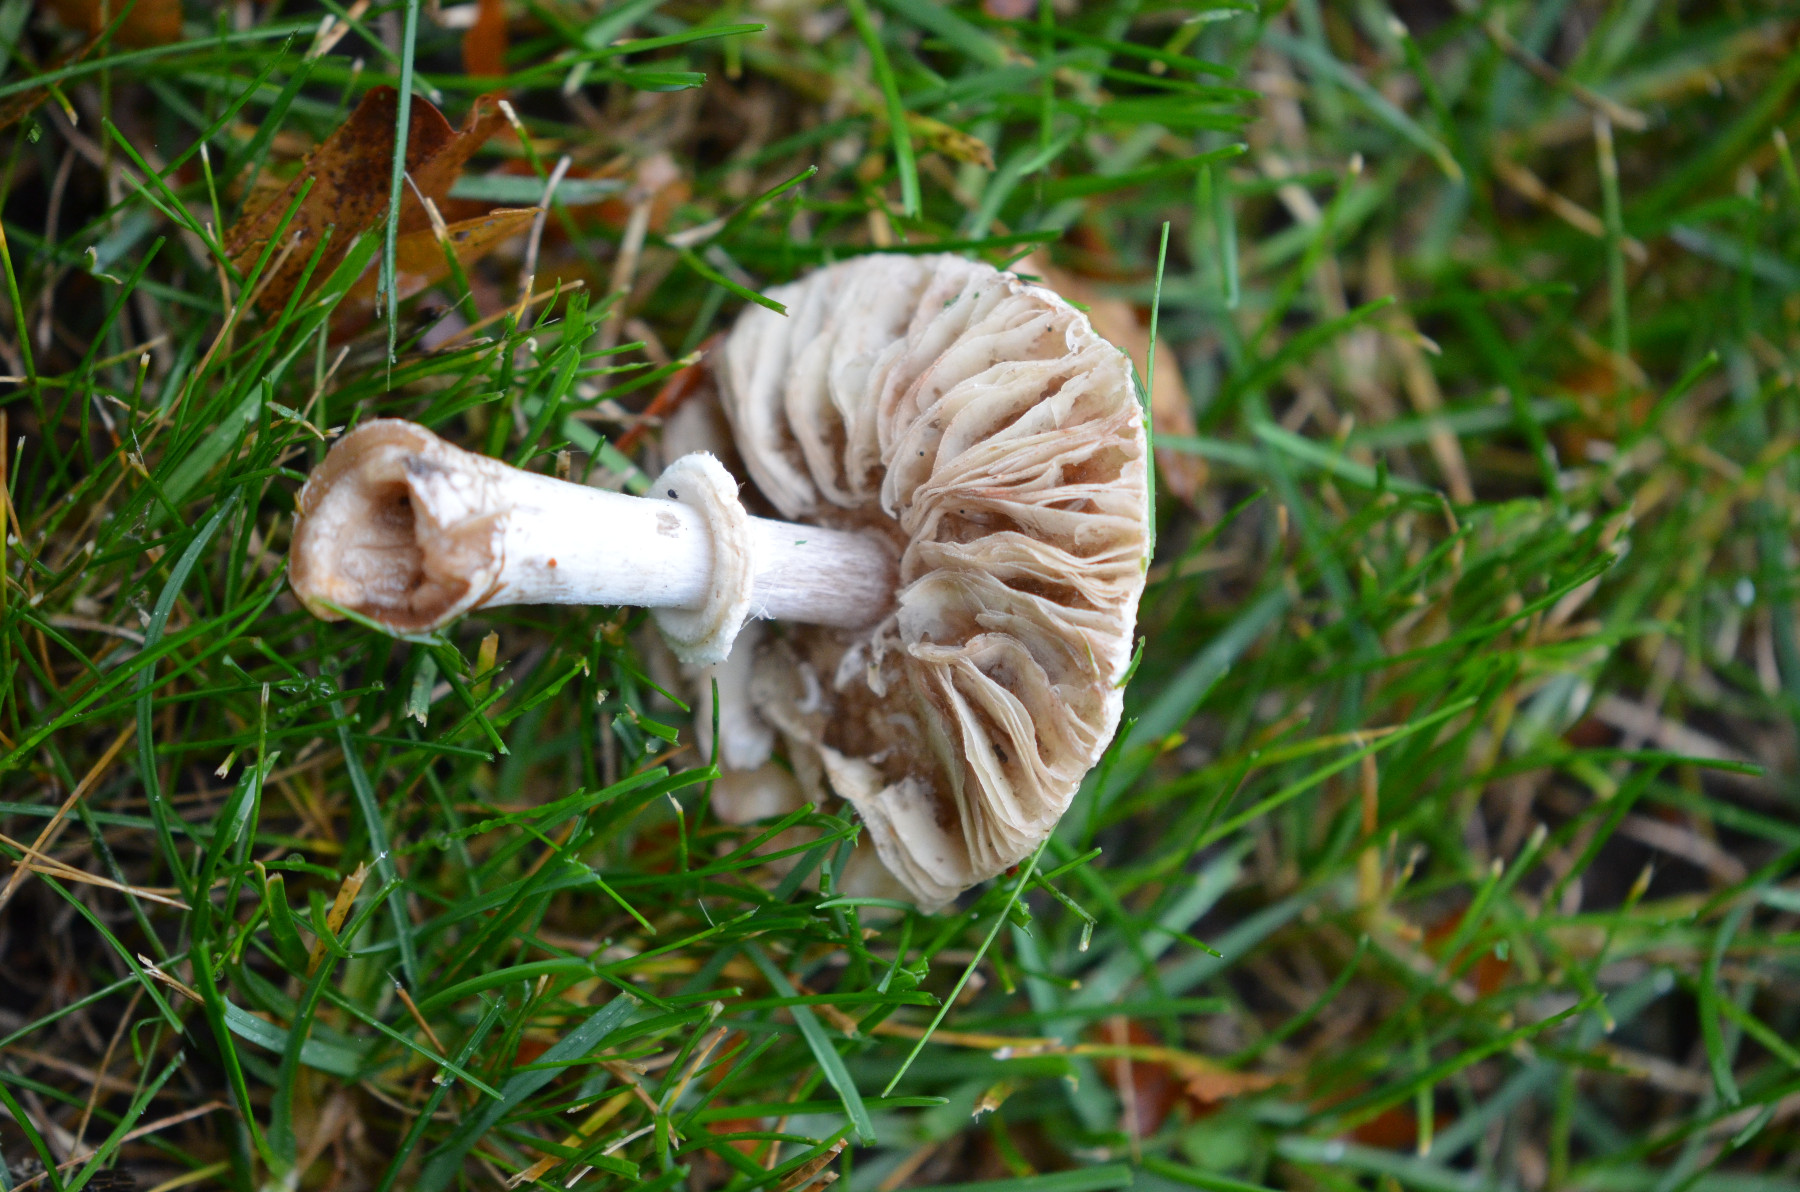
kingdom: Fungi
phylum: Basidiomycota
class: Agaricomycetes
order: Agaricales
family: Agaricaceae
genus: Leucoagaricus
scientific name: Leucoagaricus leucothites
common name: rosabladet silkehat
